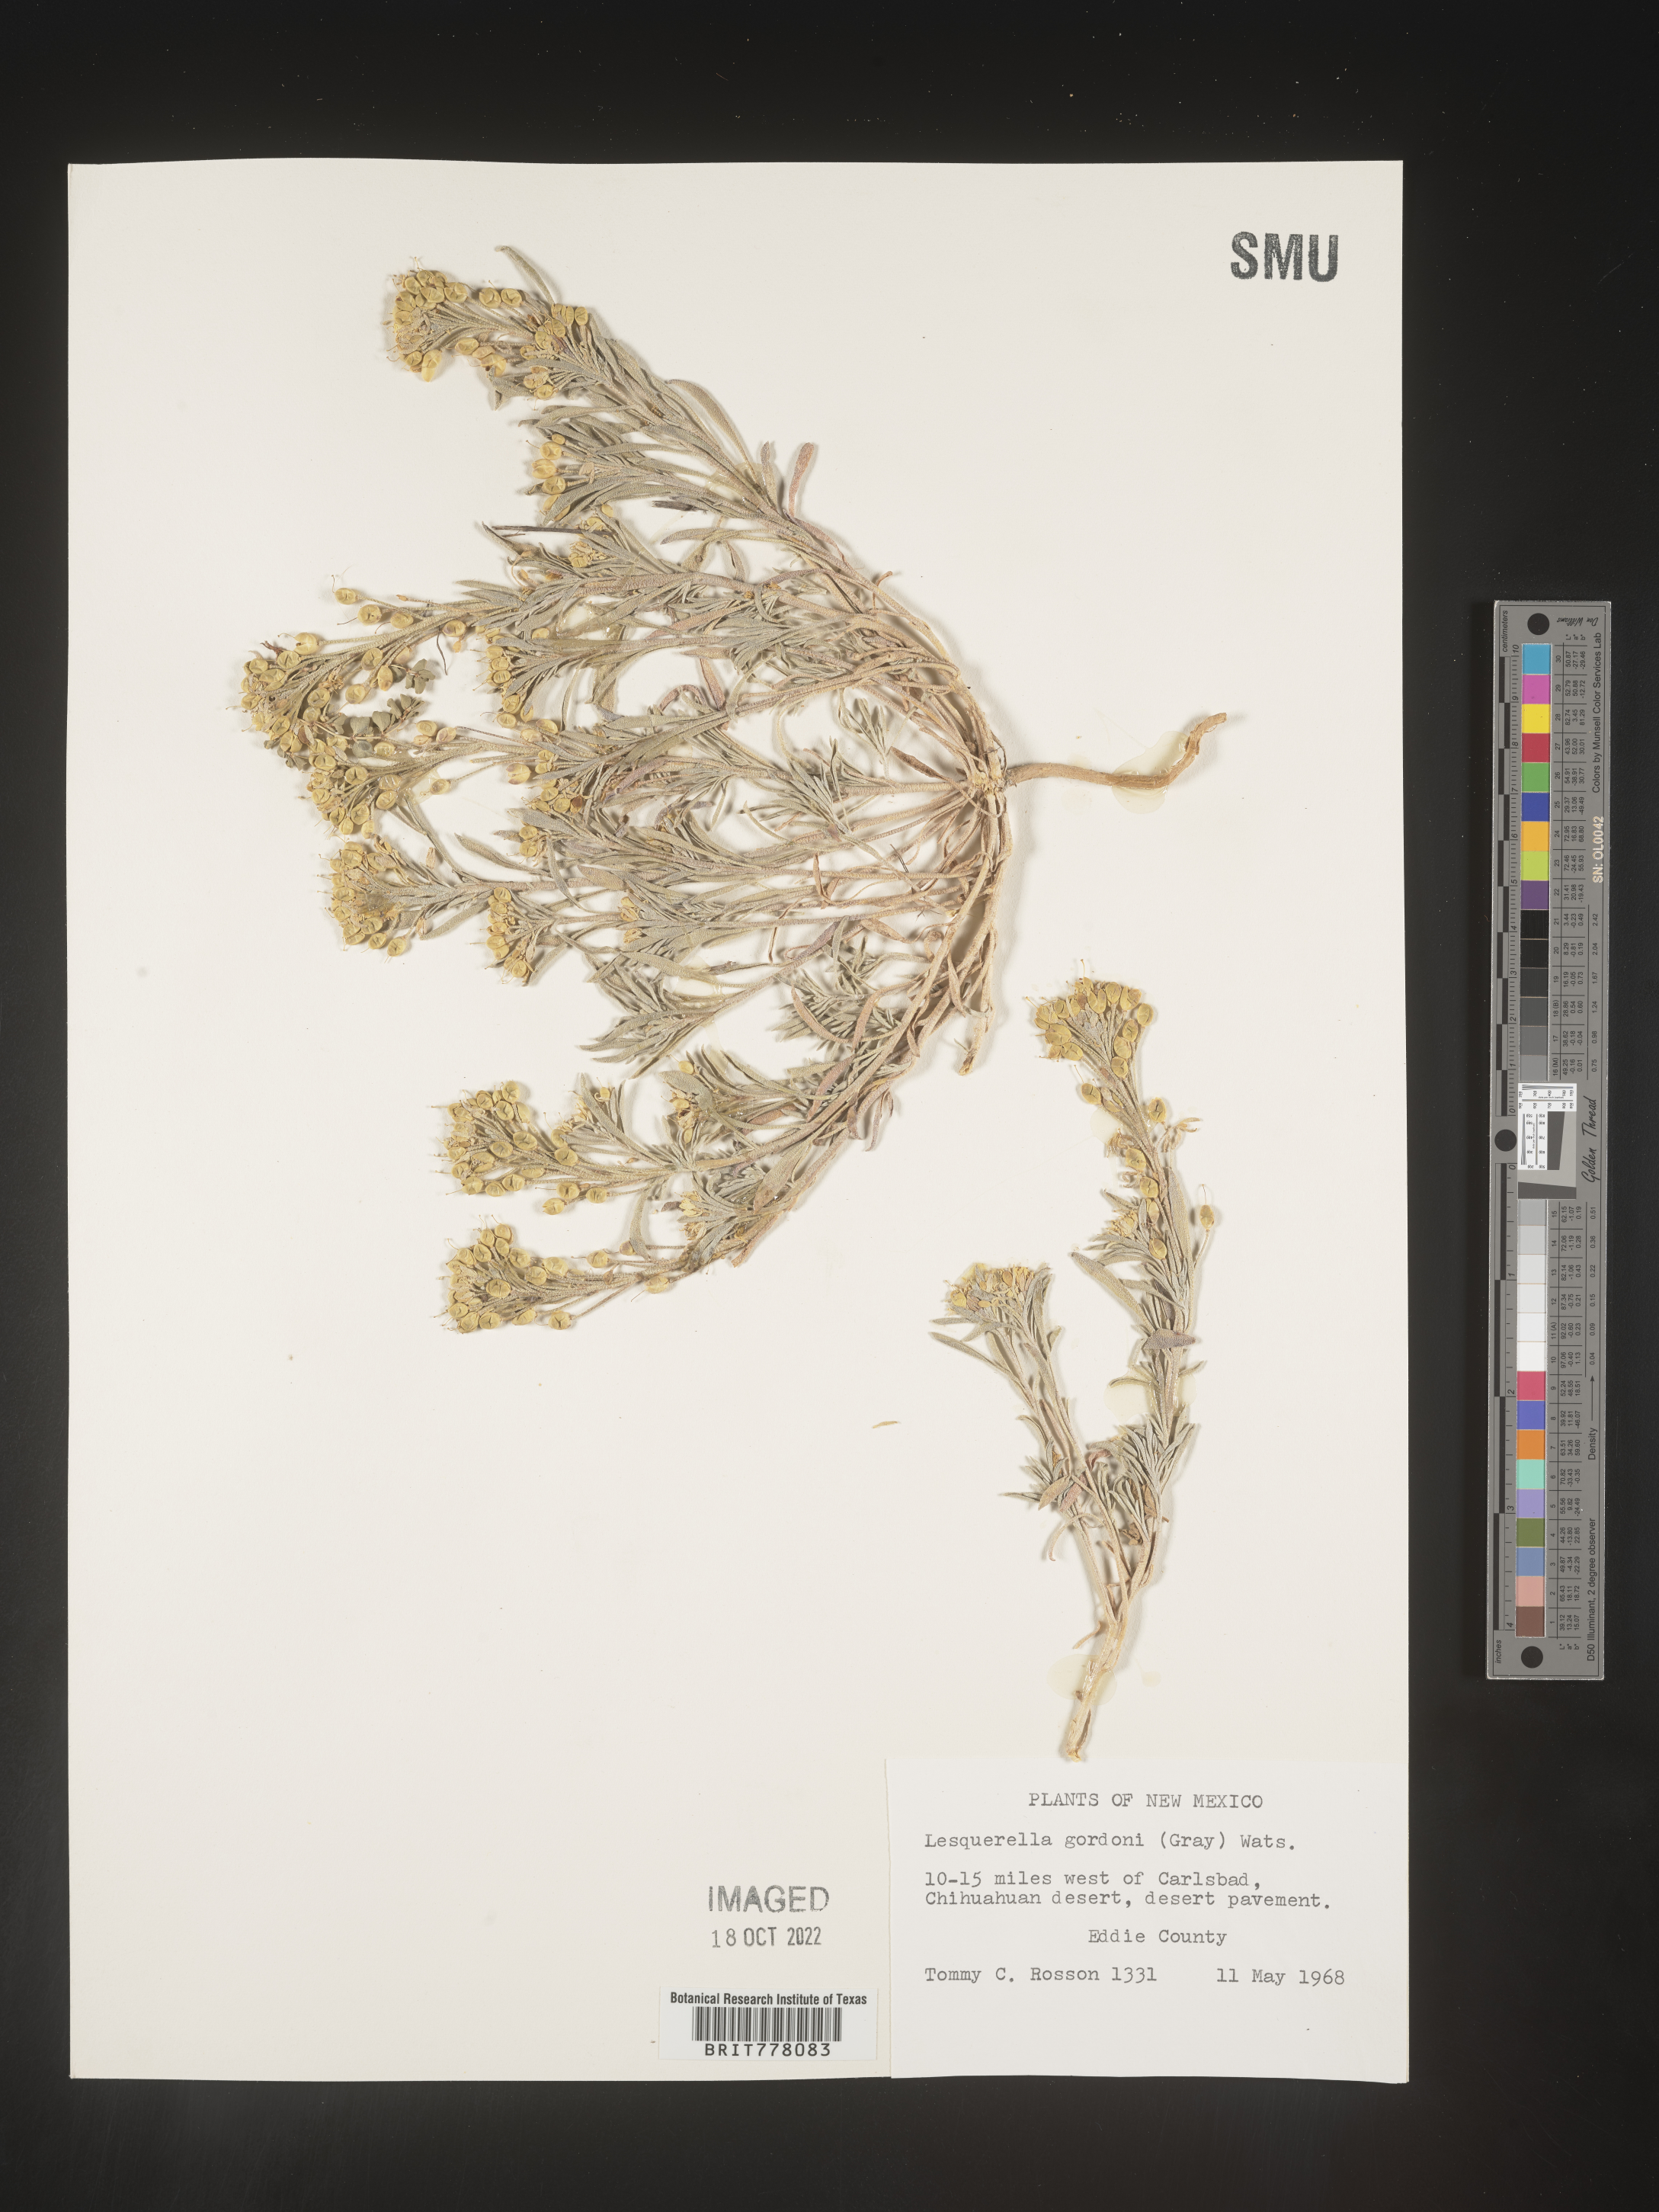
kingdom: Chromista
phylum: Cercozoa
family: Psammonobiotidae
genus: Lesquerella
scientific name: Lesquerella
